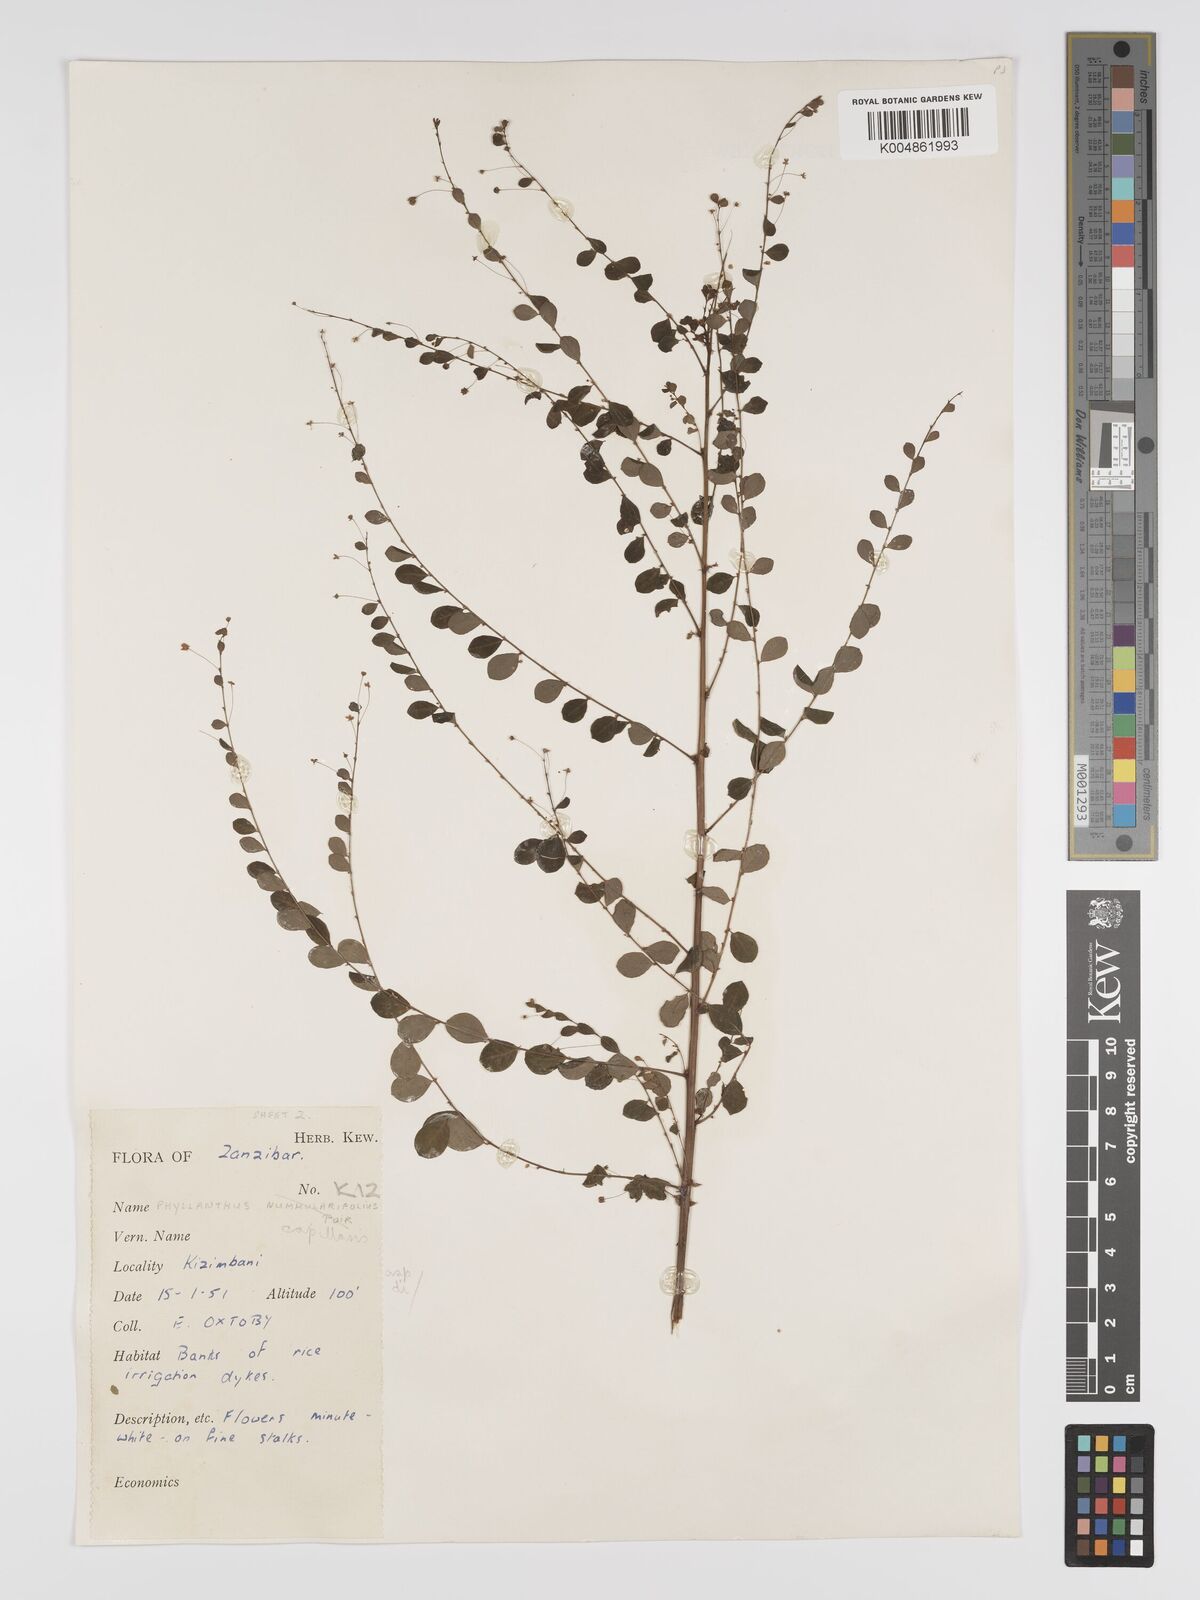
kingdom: Plantae
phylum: Tracheophyta
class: Magnoliopsida
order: Malpighiales
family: Phyllanthaceae
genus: Phyllanthus
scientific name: Phyllanthus nummulariifolius
